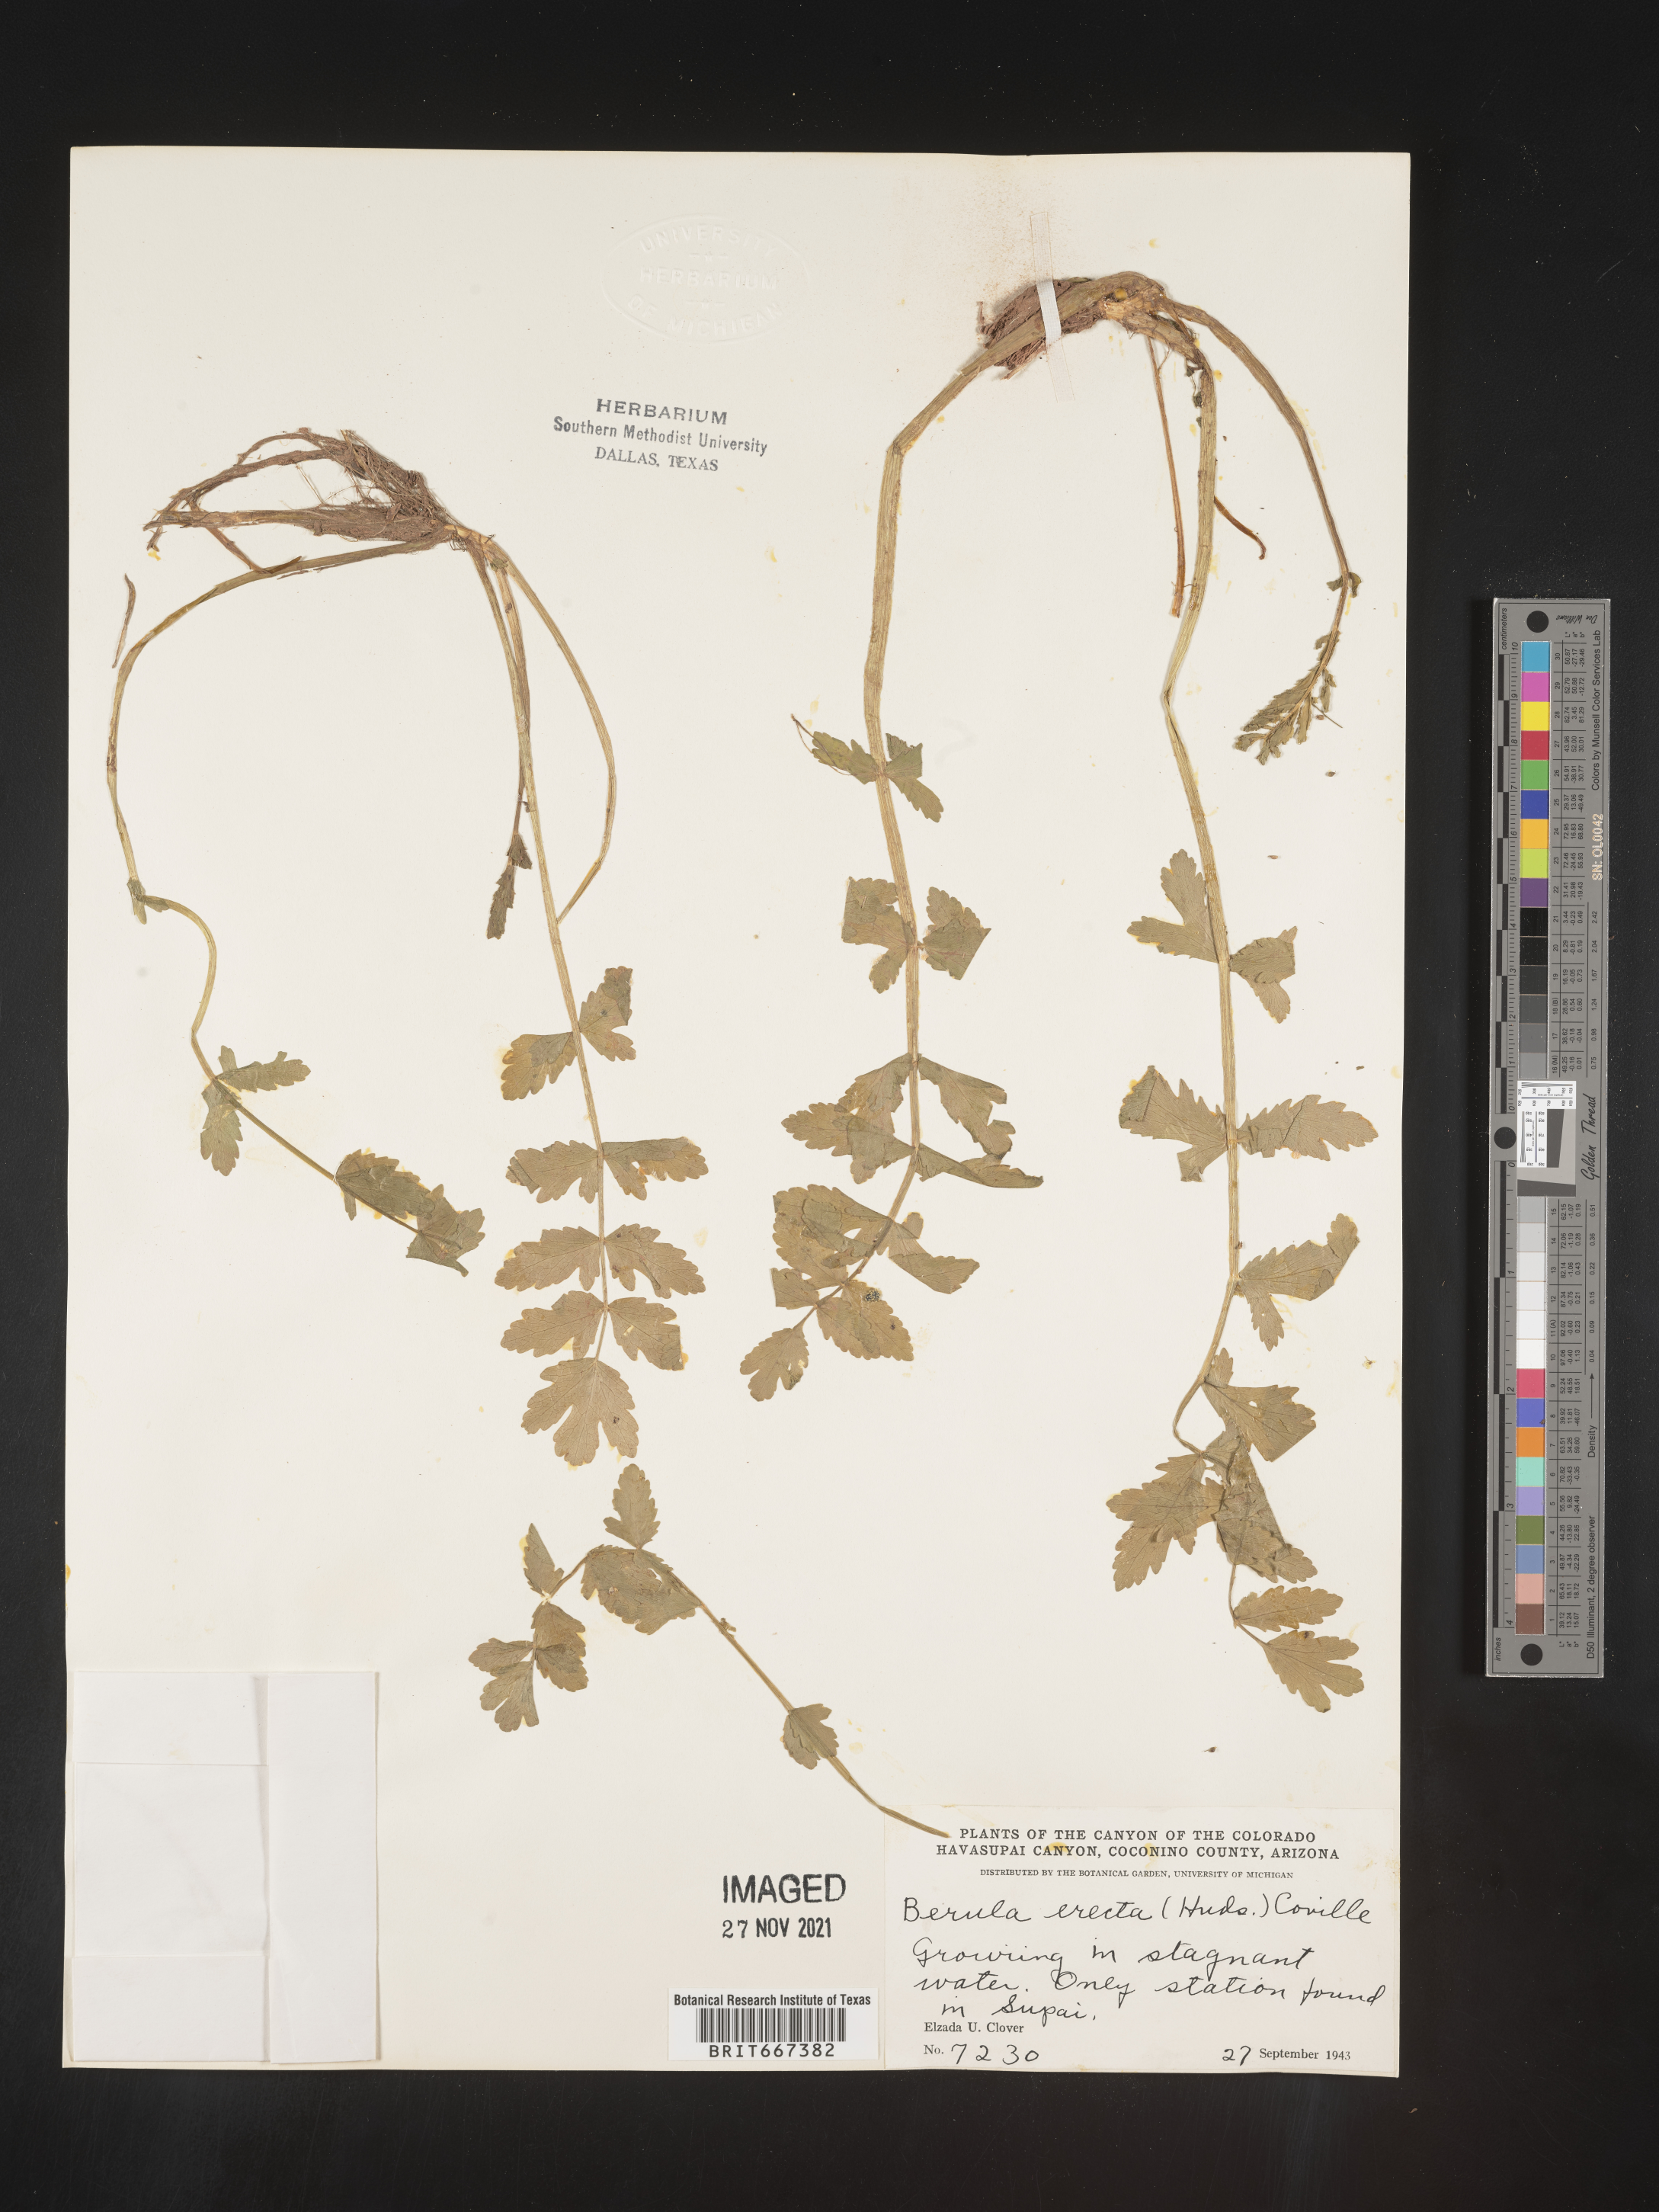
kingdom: Plantae
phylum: Tracheophyta
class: Magnoliopsida
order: Apiales
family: Apiaceae
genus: Berula
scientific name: Berula
